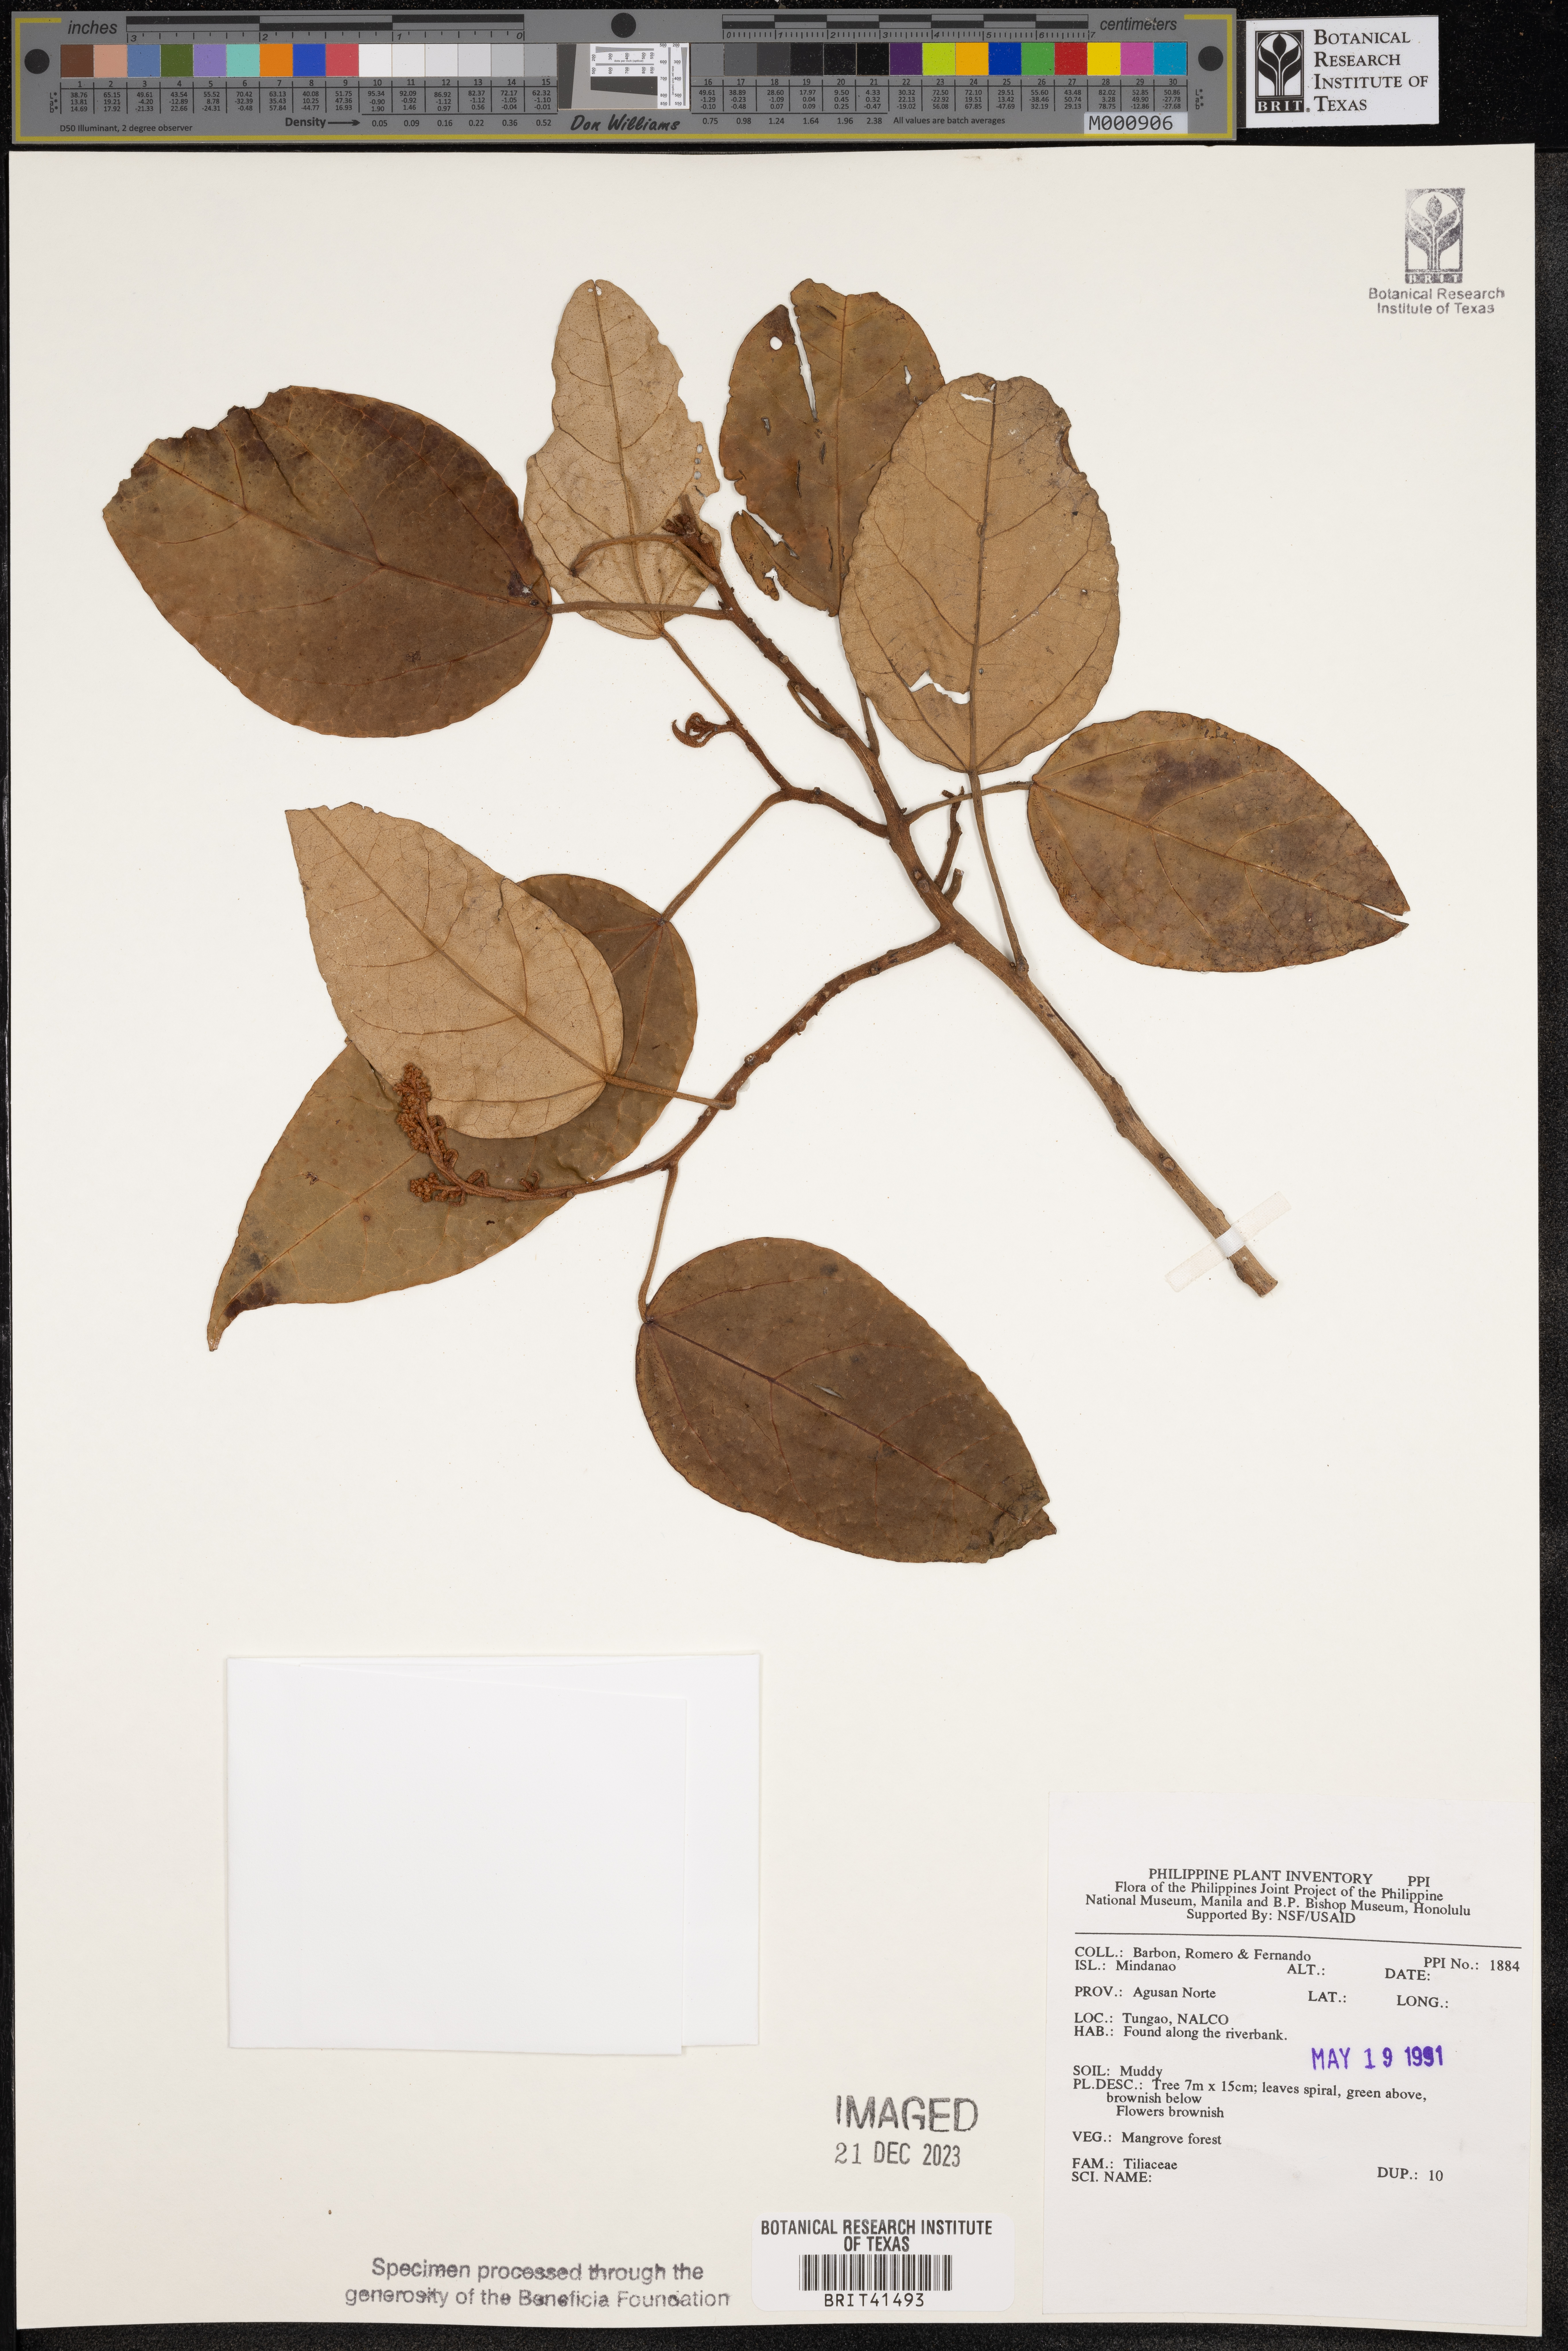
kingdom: Plantae
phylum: Tracheophyta
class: Magnoliopsida
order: Malvales
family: Tiliaceae
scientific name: Tiliaceae
